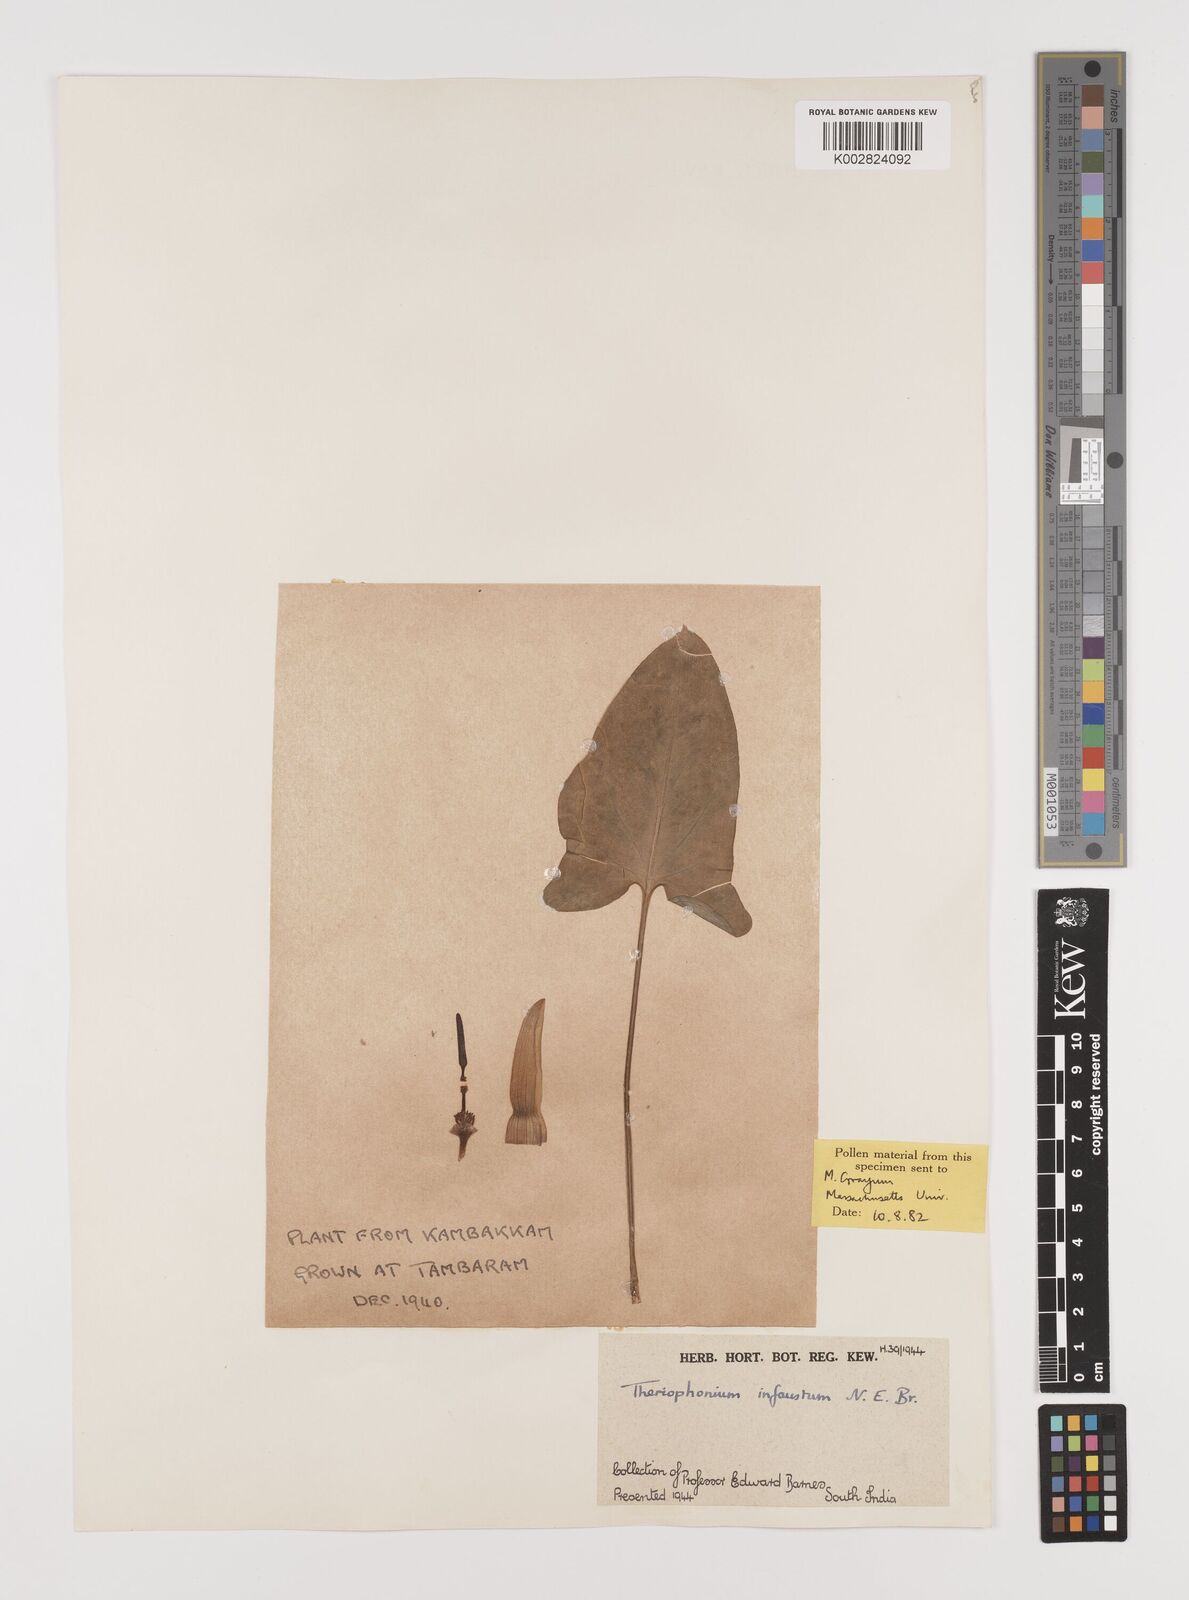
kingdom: Plantae
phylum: Tracheophyta
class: Liliopsida
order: Alismatales
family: Araceae
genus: Theriophonum
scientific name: Theriophonum infaustum
